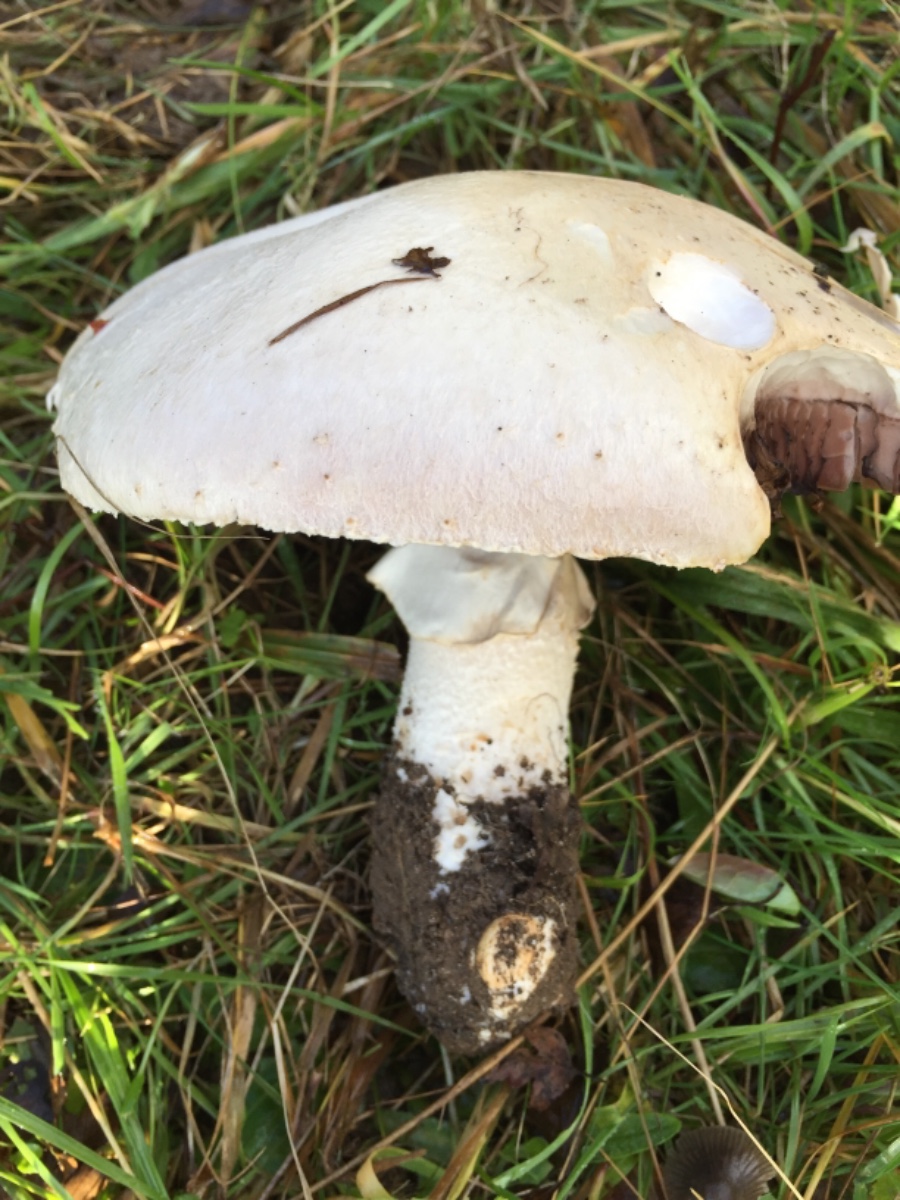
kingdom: Fungi
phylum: Basidiomycota
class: Agaricomycetes
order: Agaricales
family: Agaricaceae
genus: Agaricus
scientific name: Agaricus crocodilinus
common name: landsby-champignon
